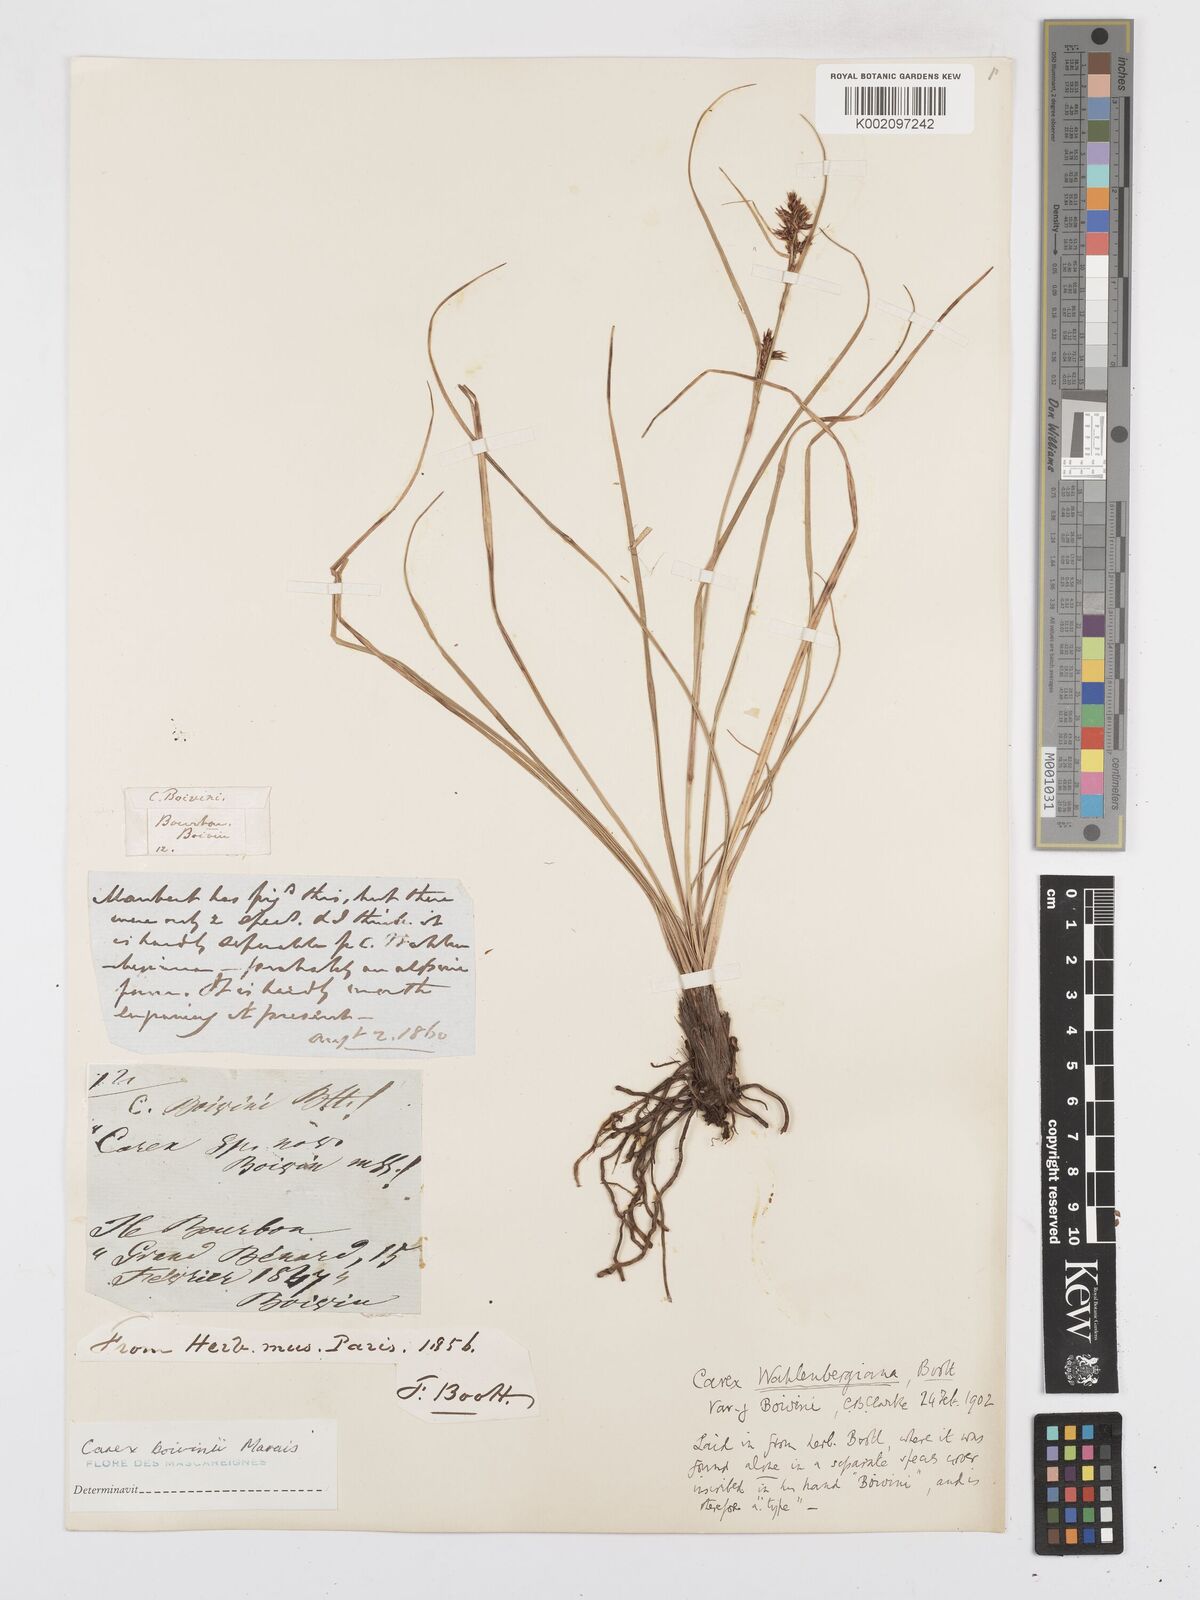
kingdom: Plantae
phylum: Tracheophyta
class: Liliopsida
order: Poales
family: Cyperaceae
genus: Carex
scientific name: Carex wahlenbergiana
